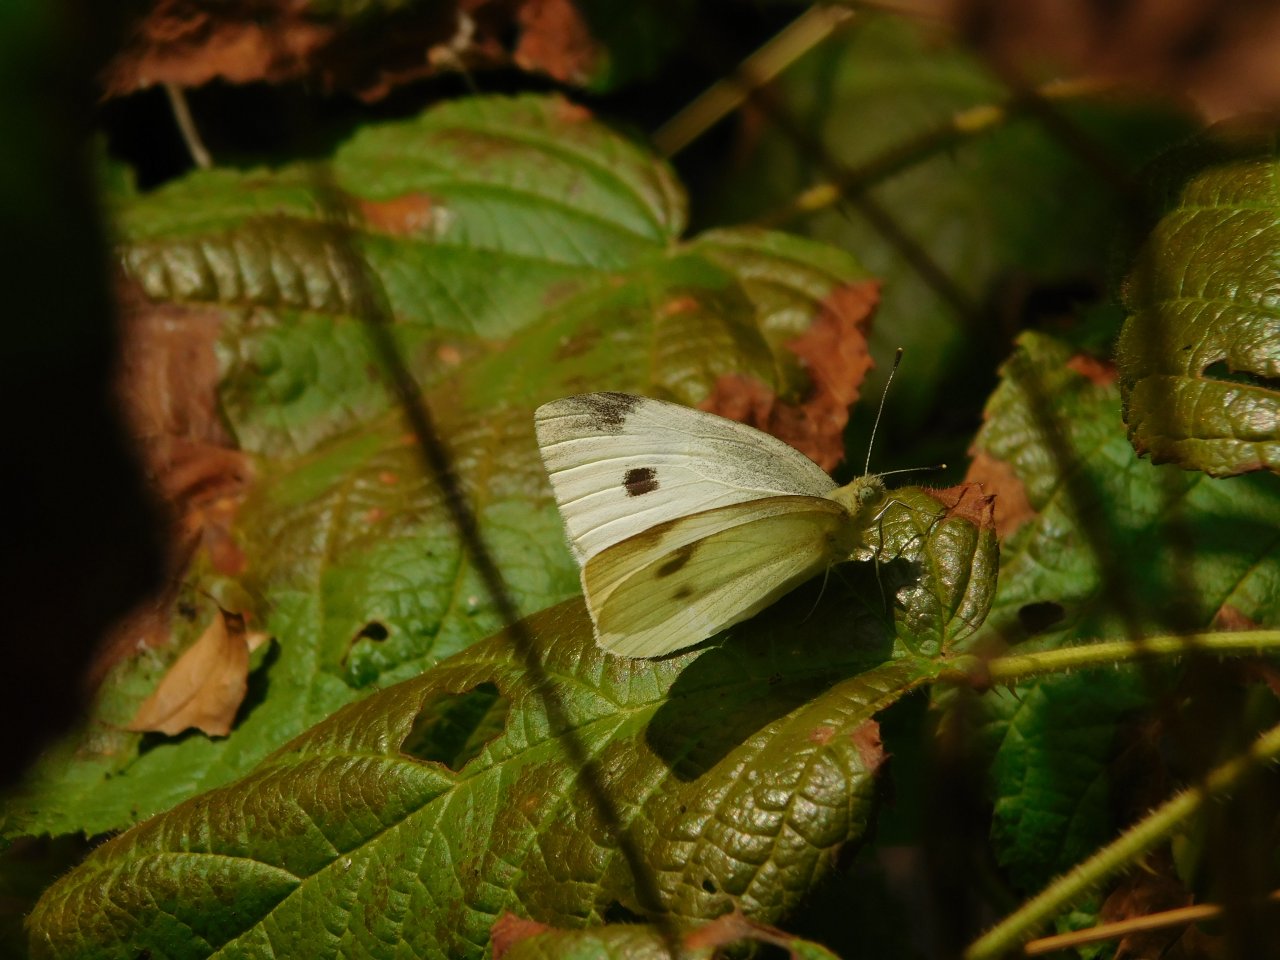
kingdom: Animalia
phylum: Arthropoda
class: Insecta
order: Lepidoptera
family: Pieridae
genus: Pieris
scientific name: Pieris rapae
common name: Cabbage White
